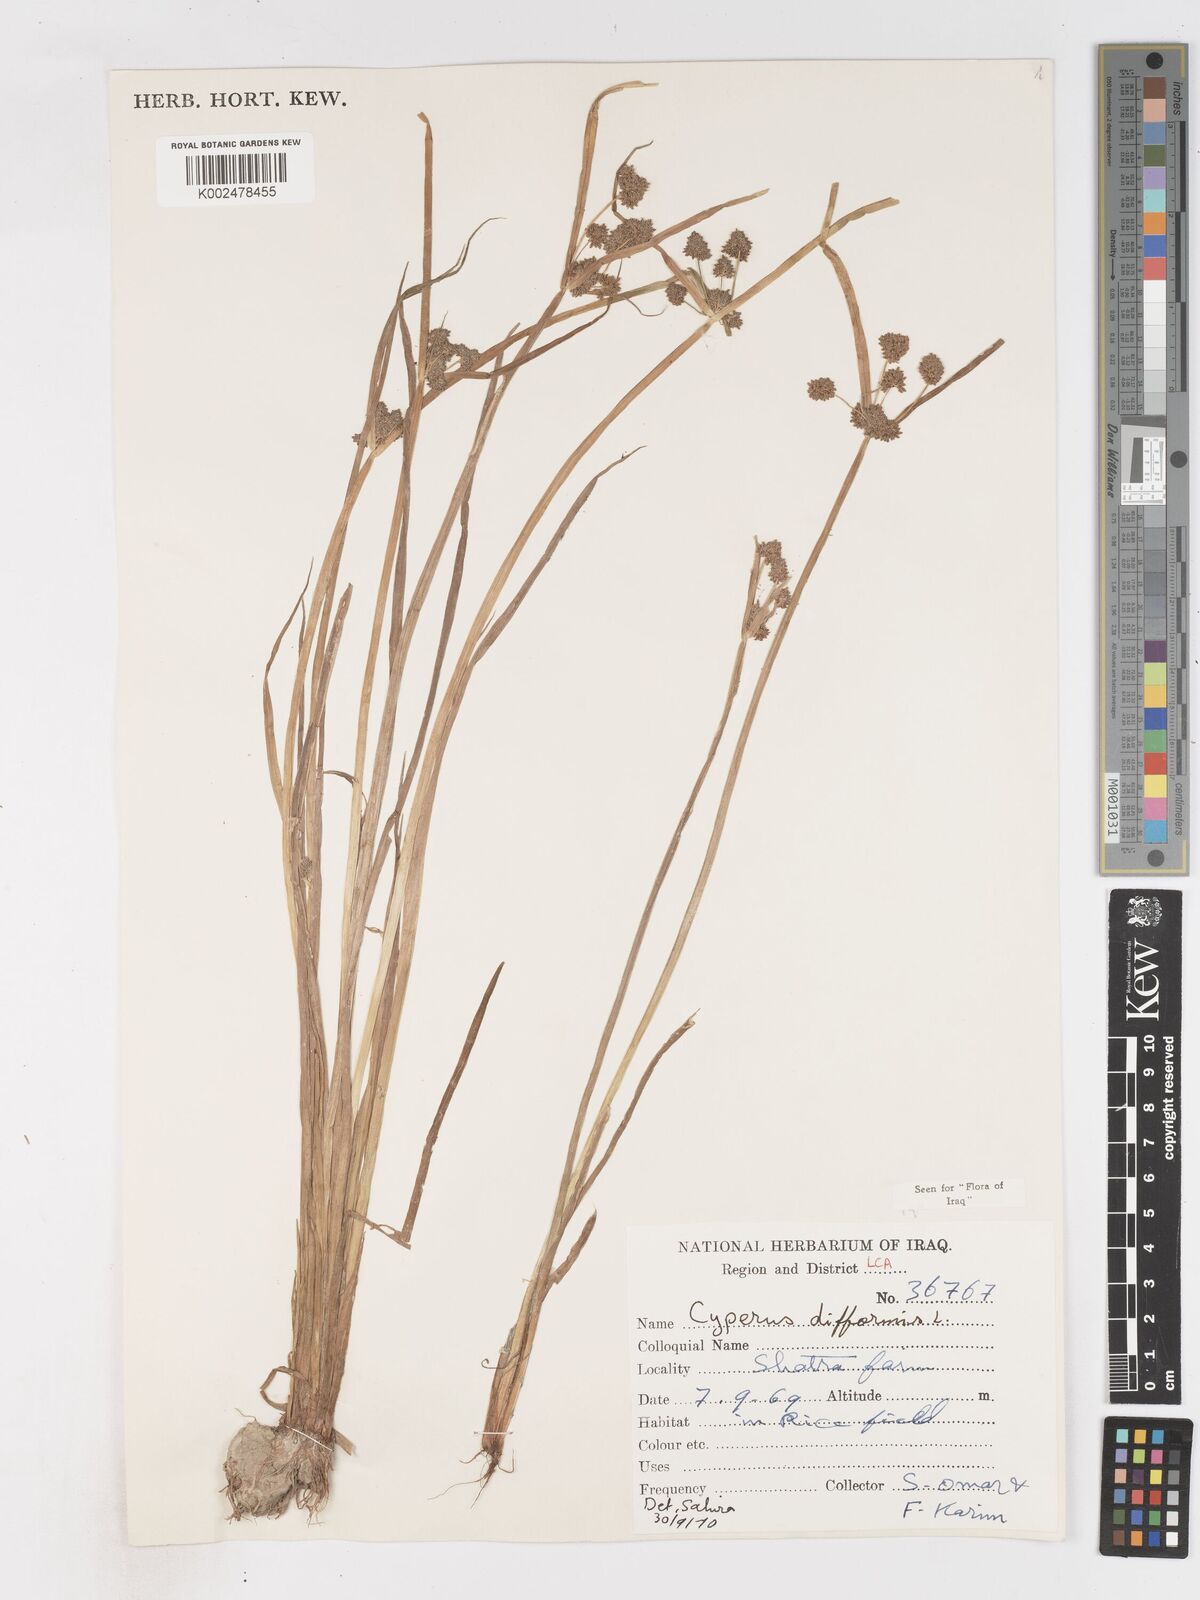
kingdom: Plantae
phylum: Tracheophyta
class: Liliopsida
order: Poales
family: Cyperaceae
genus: Cyperus
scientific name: Cyperus difformis
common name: Variable flatsedge
